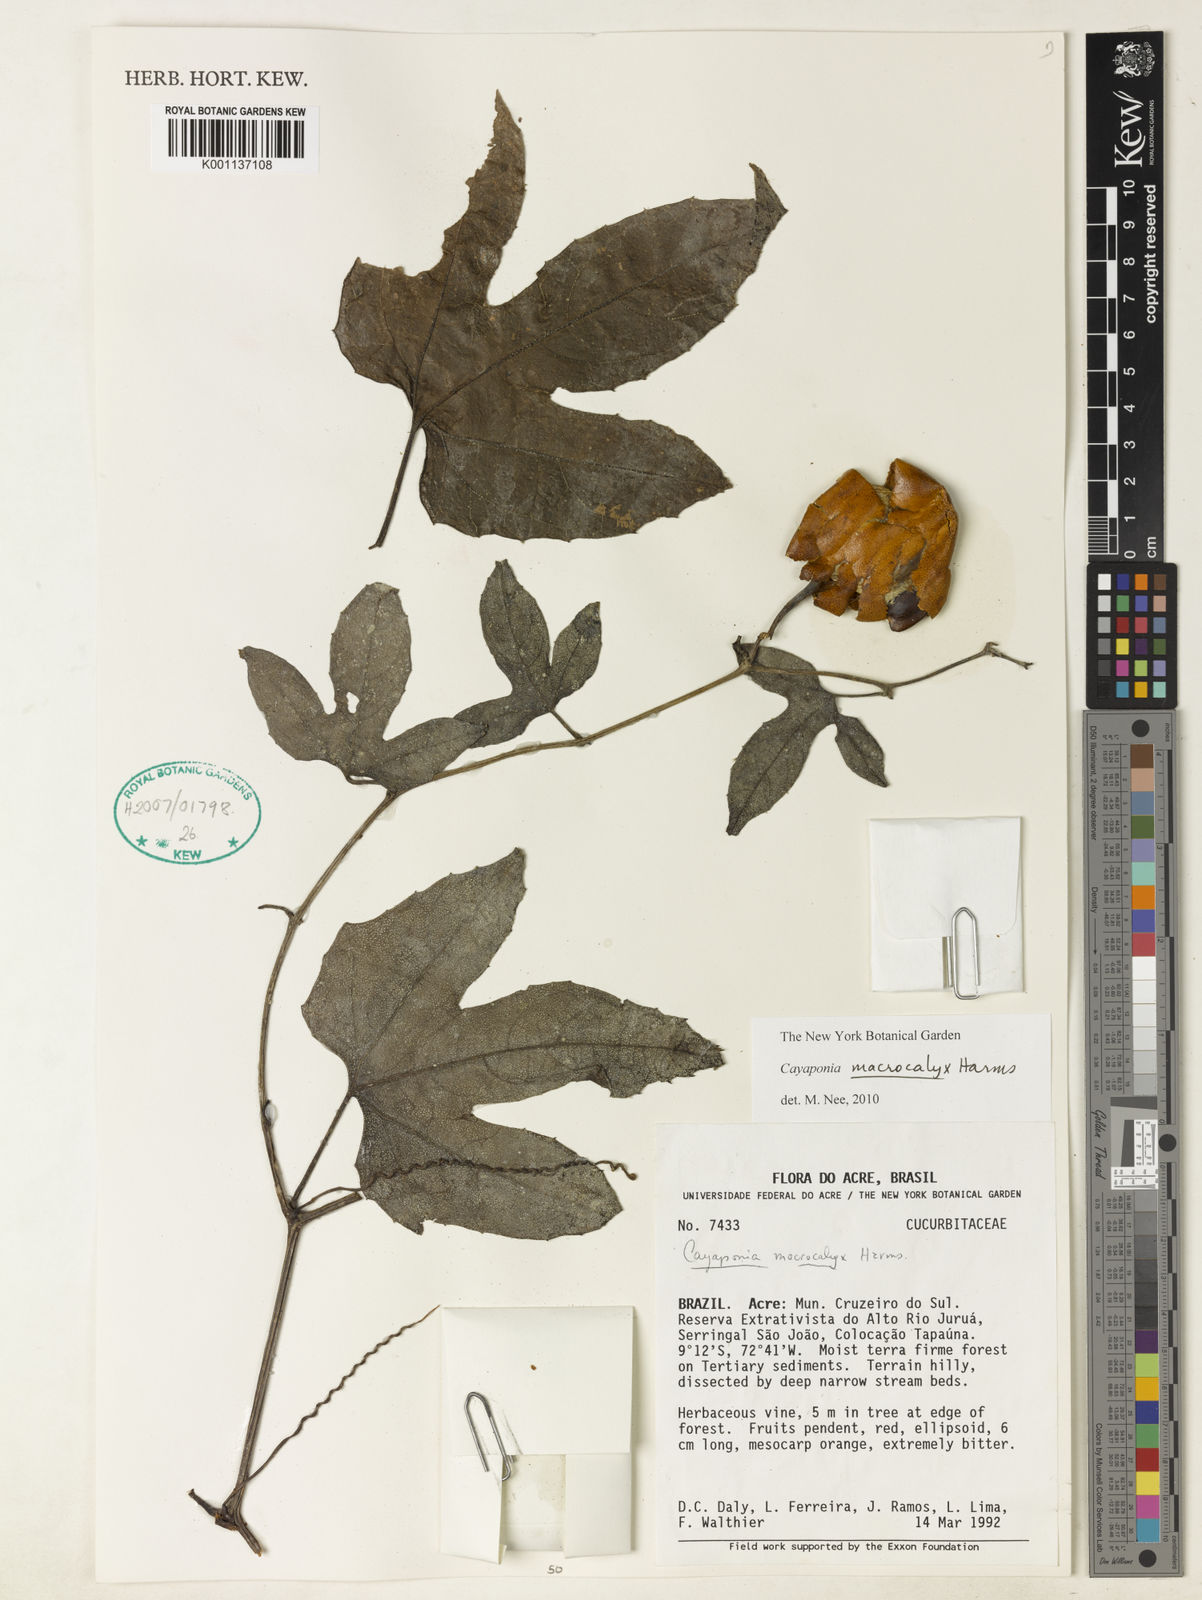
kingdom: Plantae
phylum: Tracheophyta
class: Magnoliopsida
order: Cucurbitales
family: Cucurbitaceae
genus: Cayaponia
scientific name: Cayaponia macrocalyx
